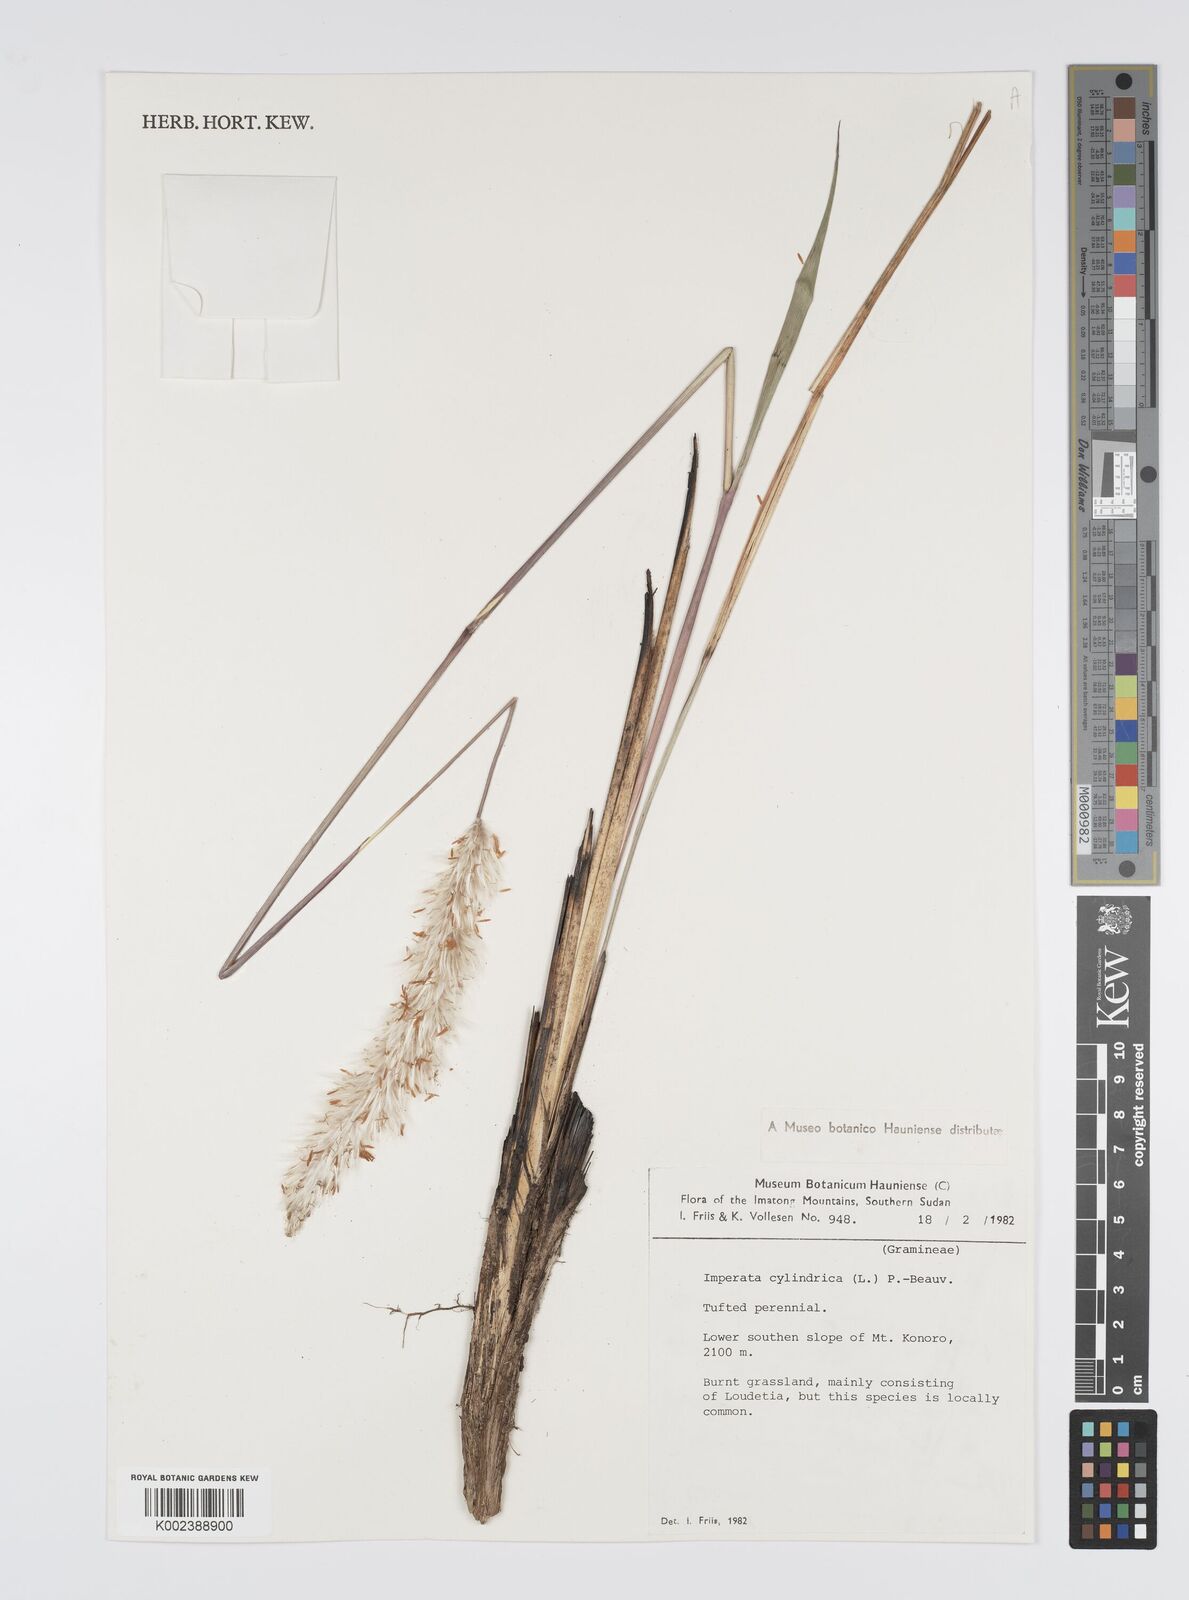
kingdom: Plantae
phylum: Tracheophyta
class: Liliopsida
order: Poales
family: Poaceae
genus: Imperata
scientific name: Imperata cylindrica
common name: Cogongrass
